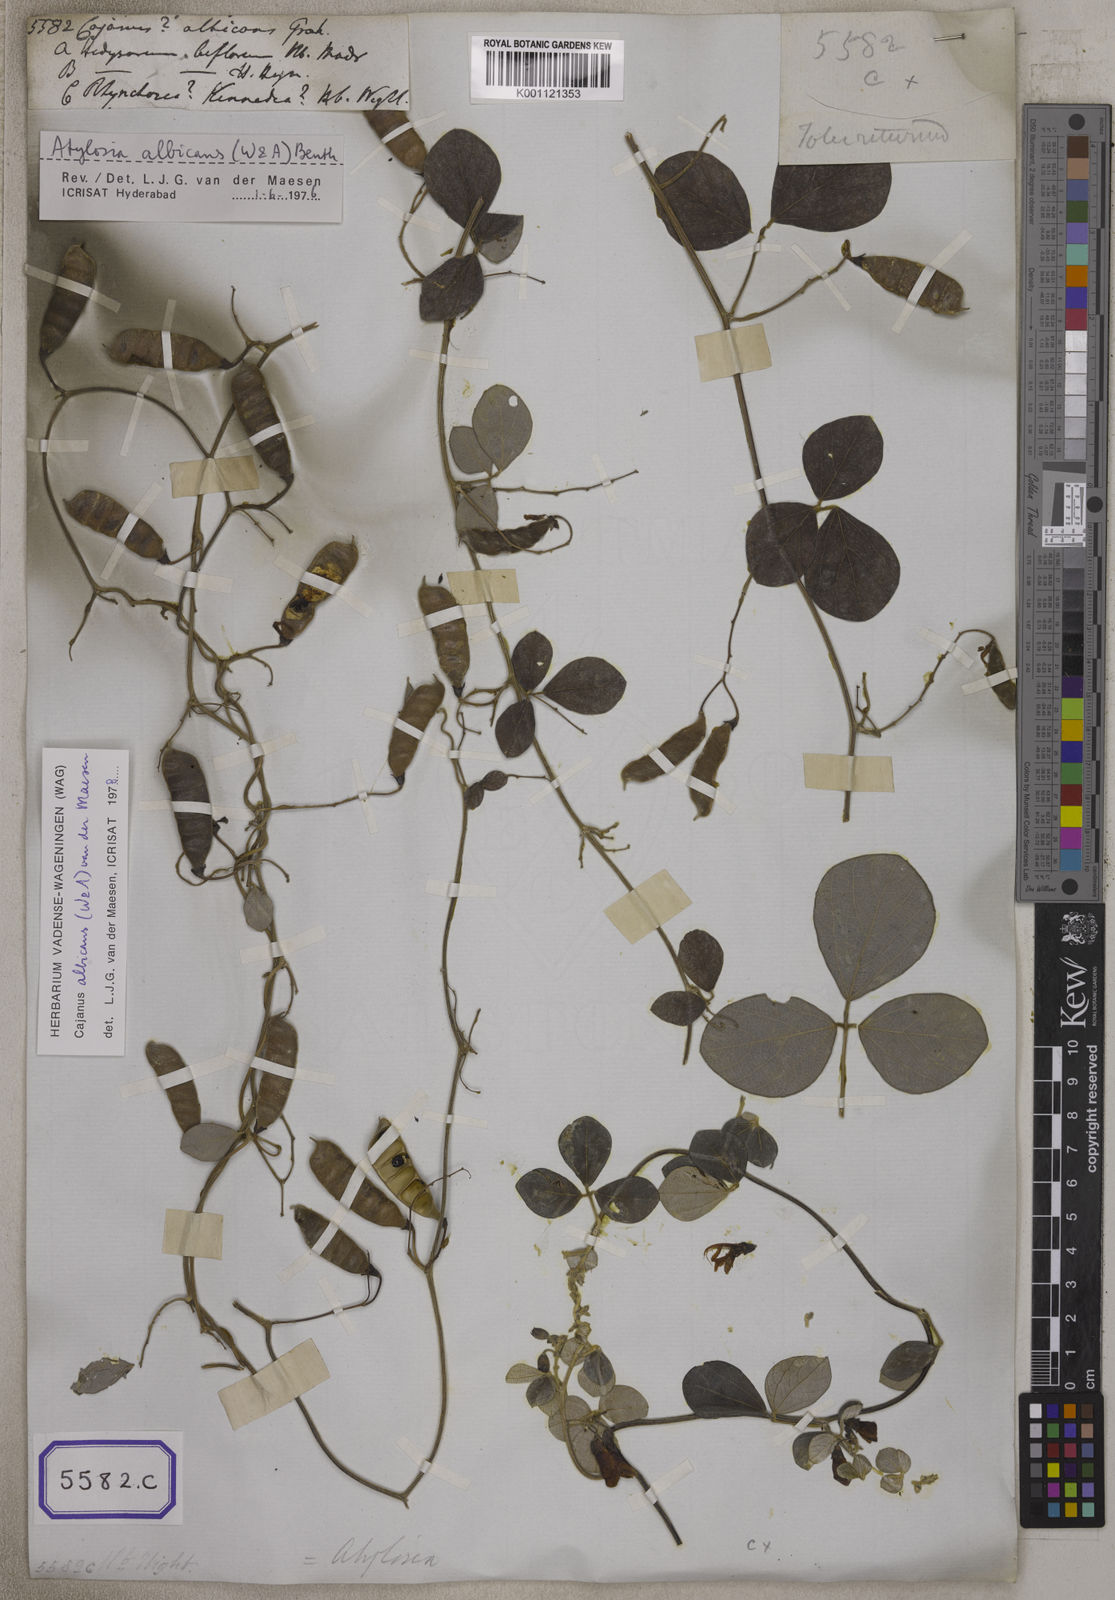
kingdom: Plantae
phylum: Tracheophyta
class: Magnoliopsida
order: Fabales
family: Fabaceae
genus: Cajanus
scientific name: Cajanus
